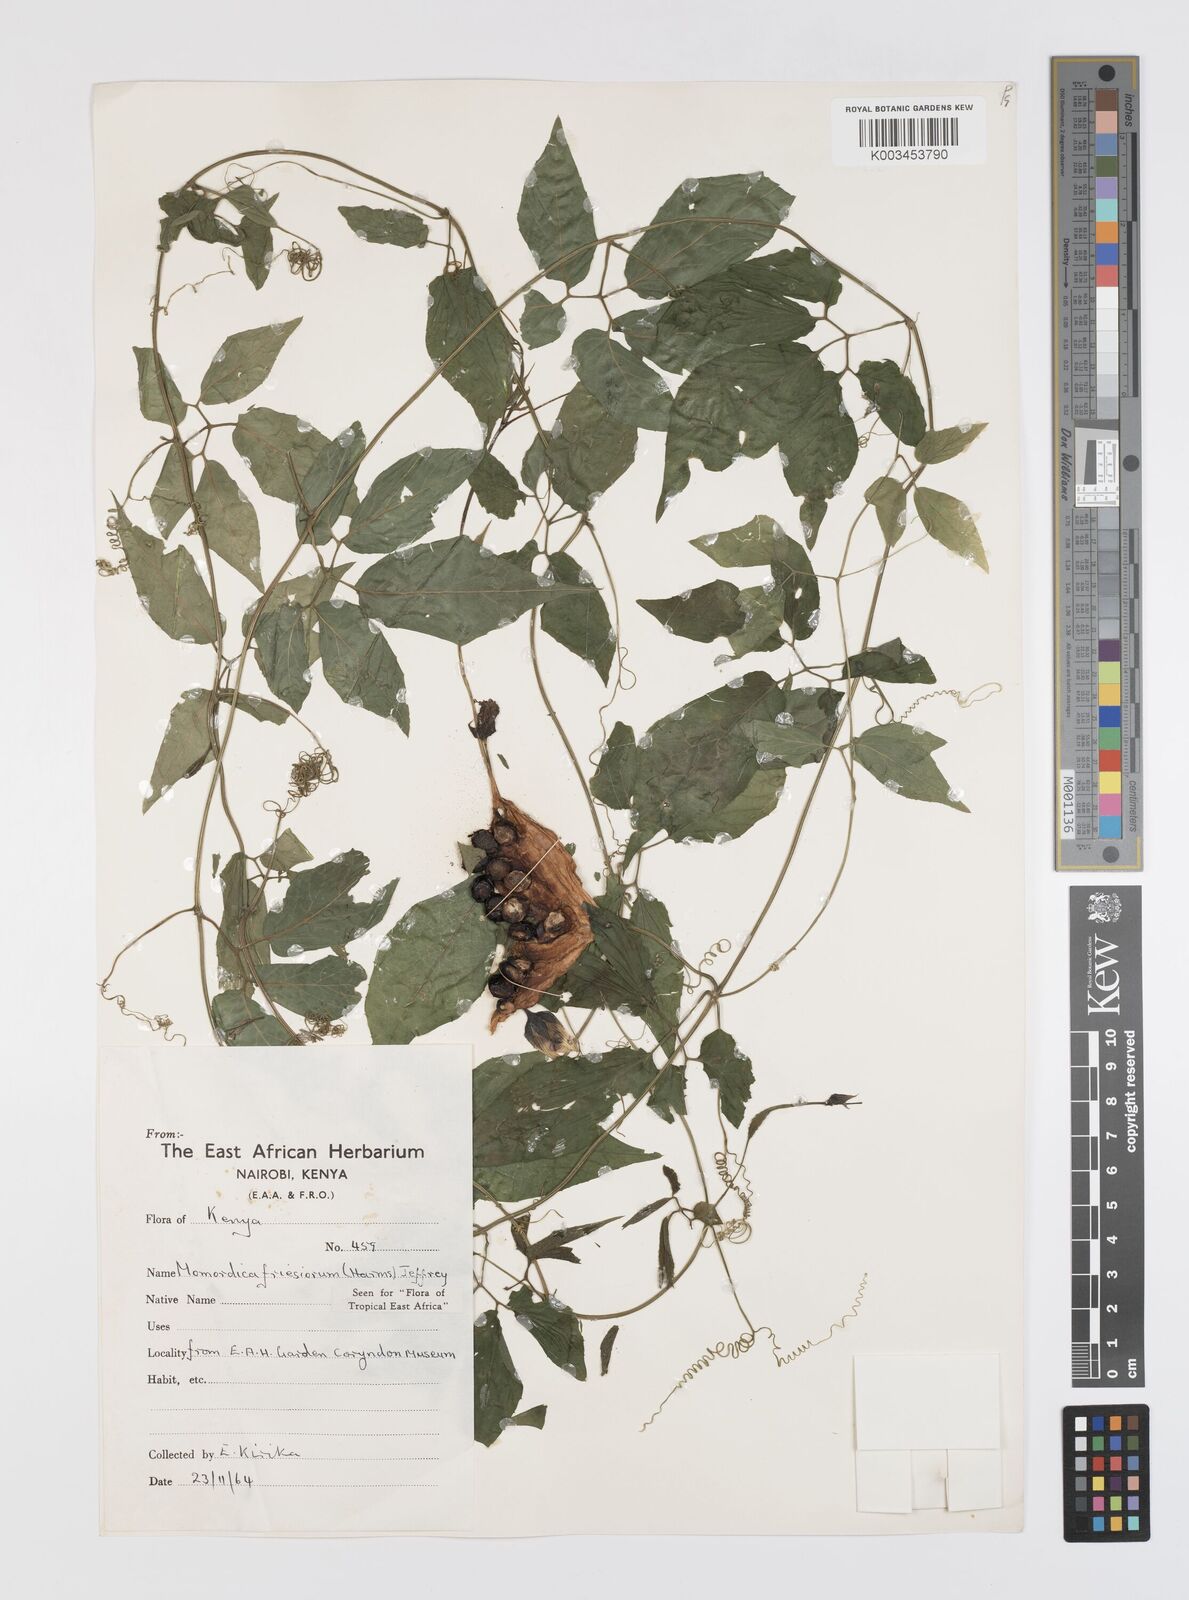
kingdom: Plantae
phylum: Tracheophyta
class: Magnoliopsida
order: Cucurbitales
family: Cucurbitaceae
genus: Momordica
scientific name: Momordica friesiorum
